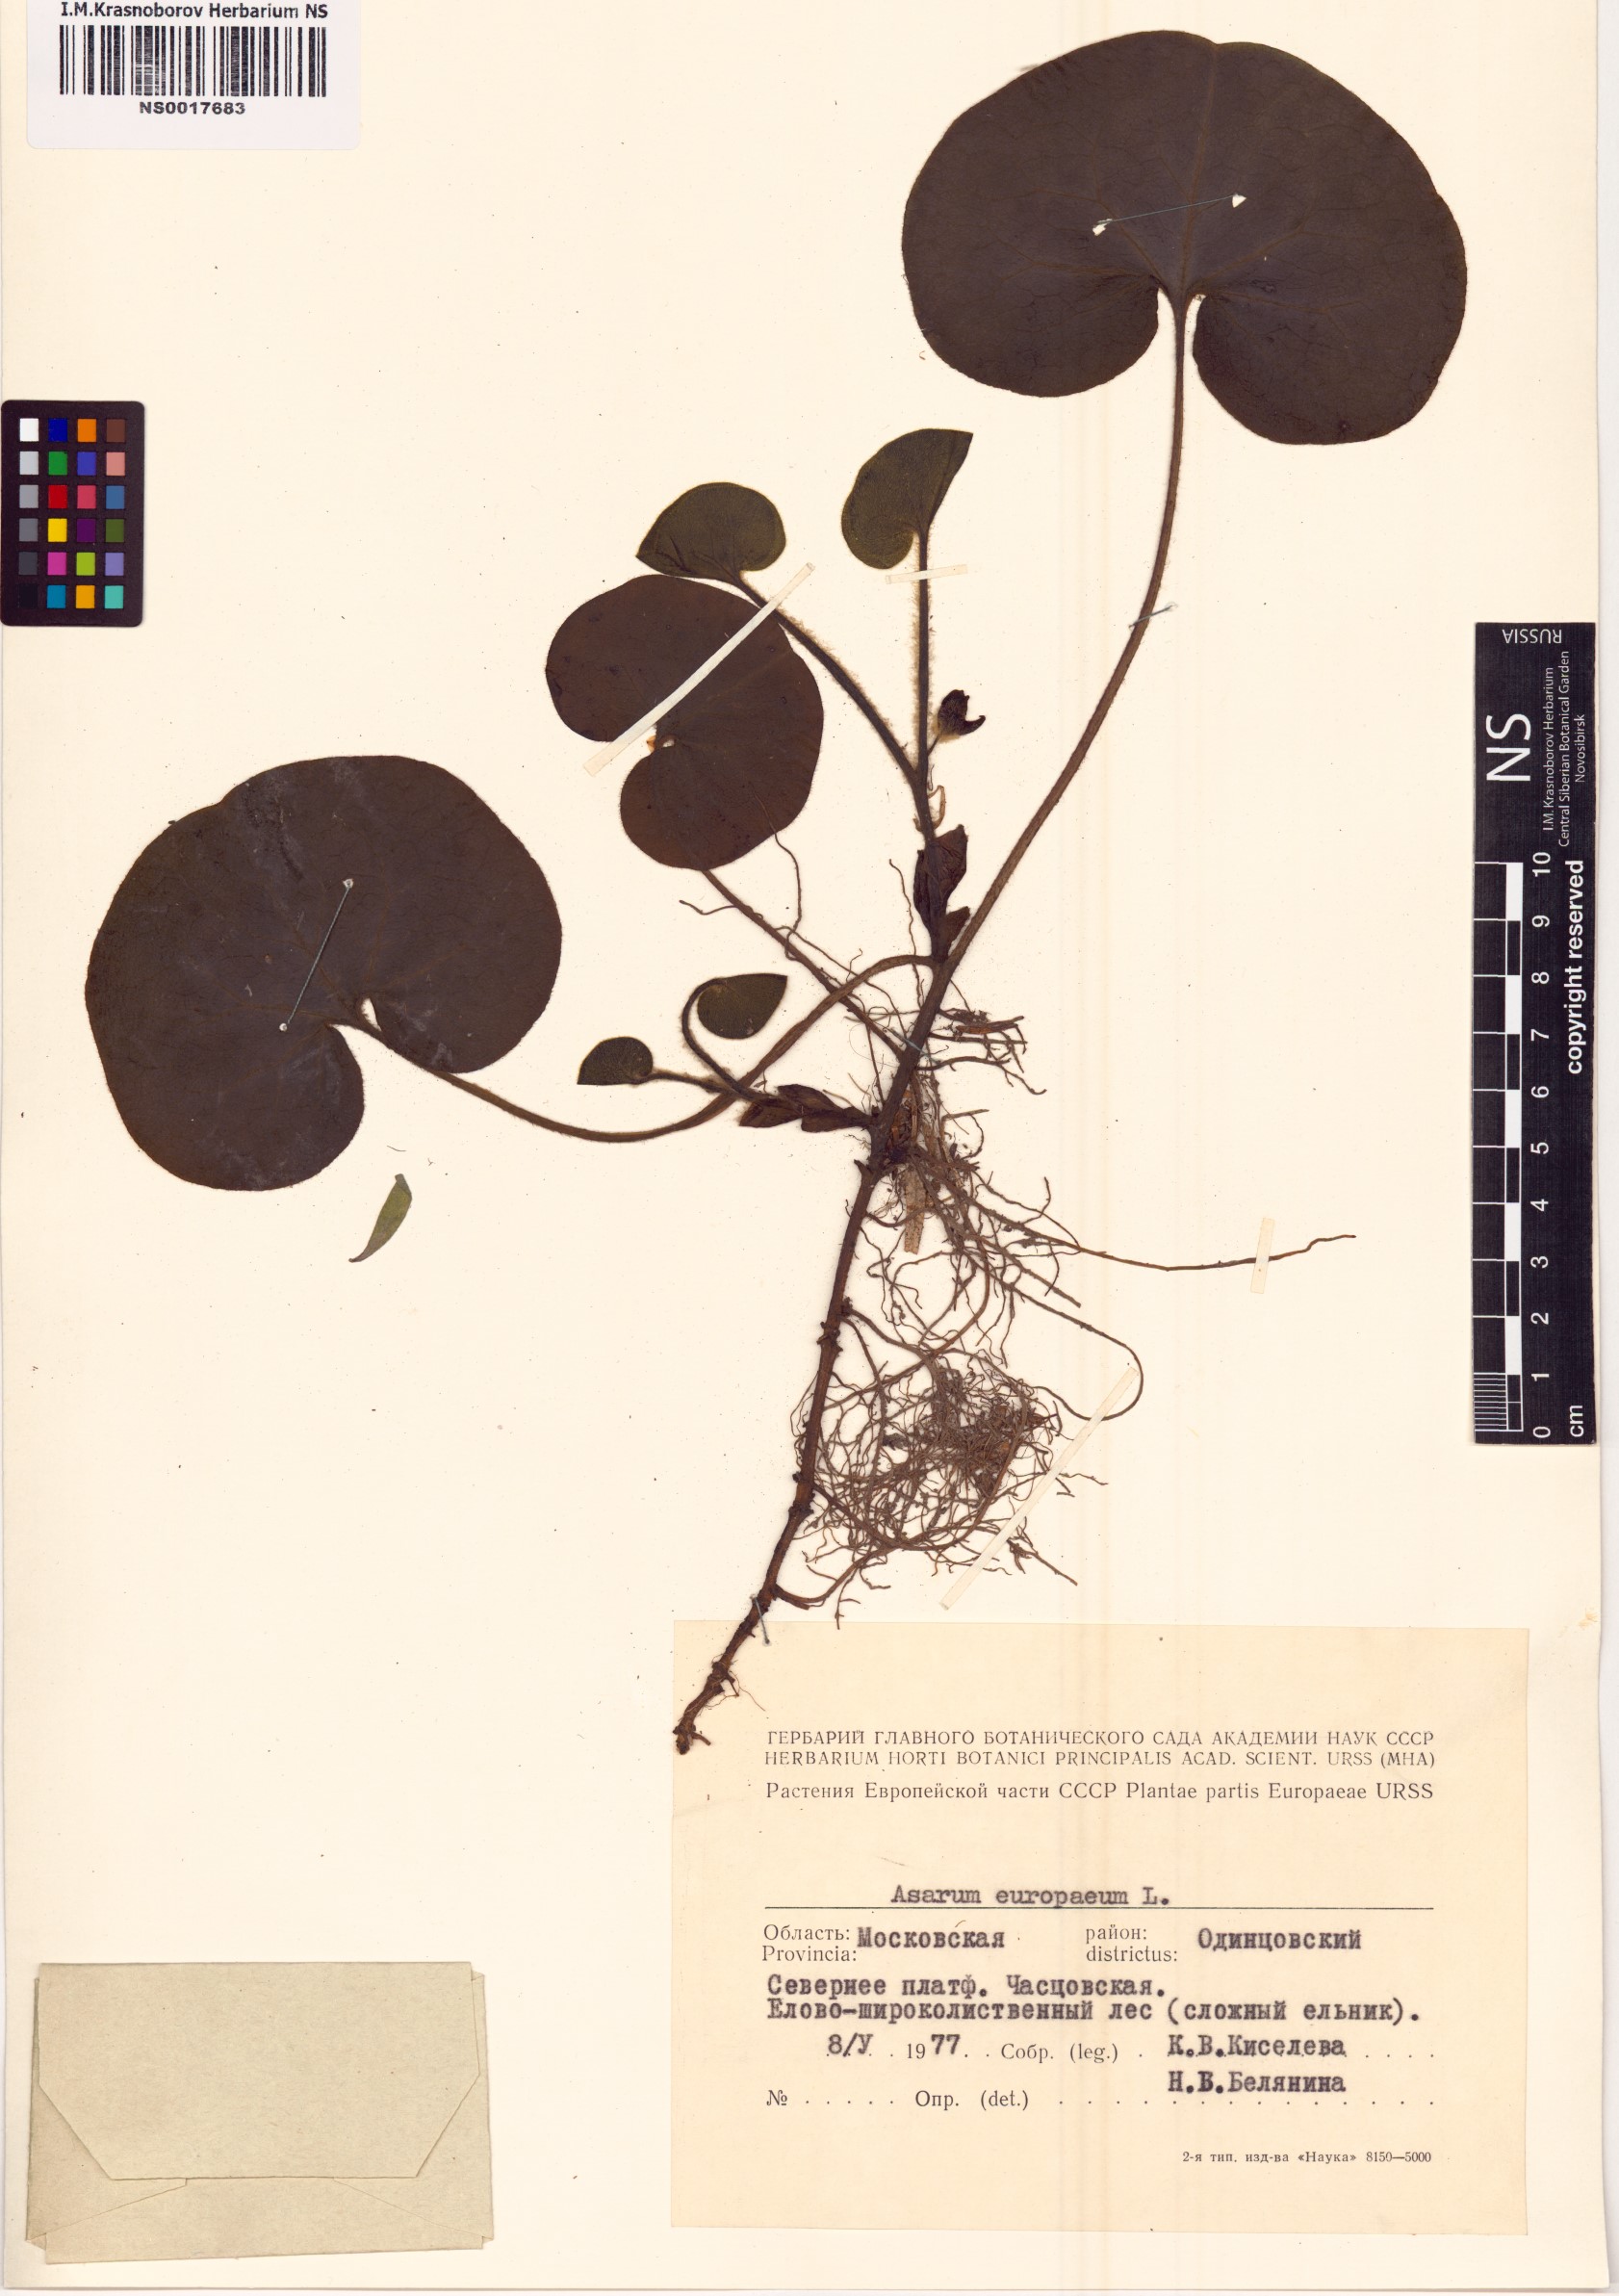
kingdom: Plantae
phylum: Tracheophyta
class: Magnoliopsida
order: Piperales
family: Aristolochiaceae
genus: Asarum
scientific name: Asarum europaeum
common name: Asarabacca
